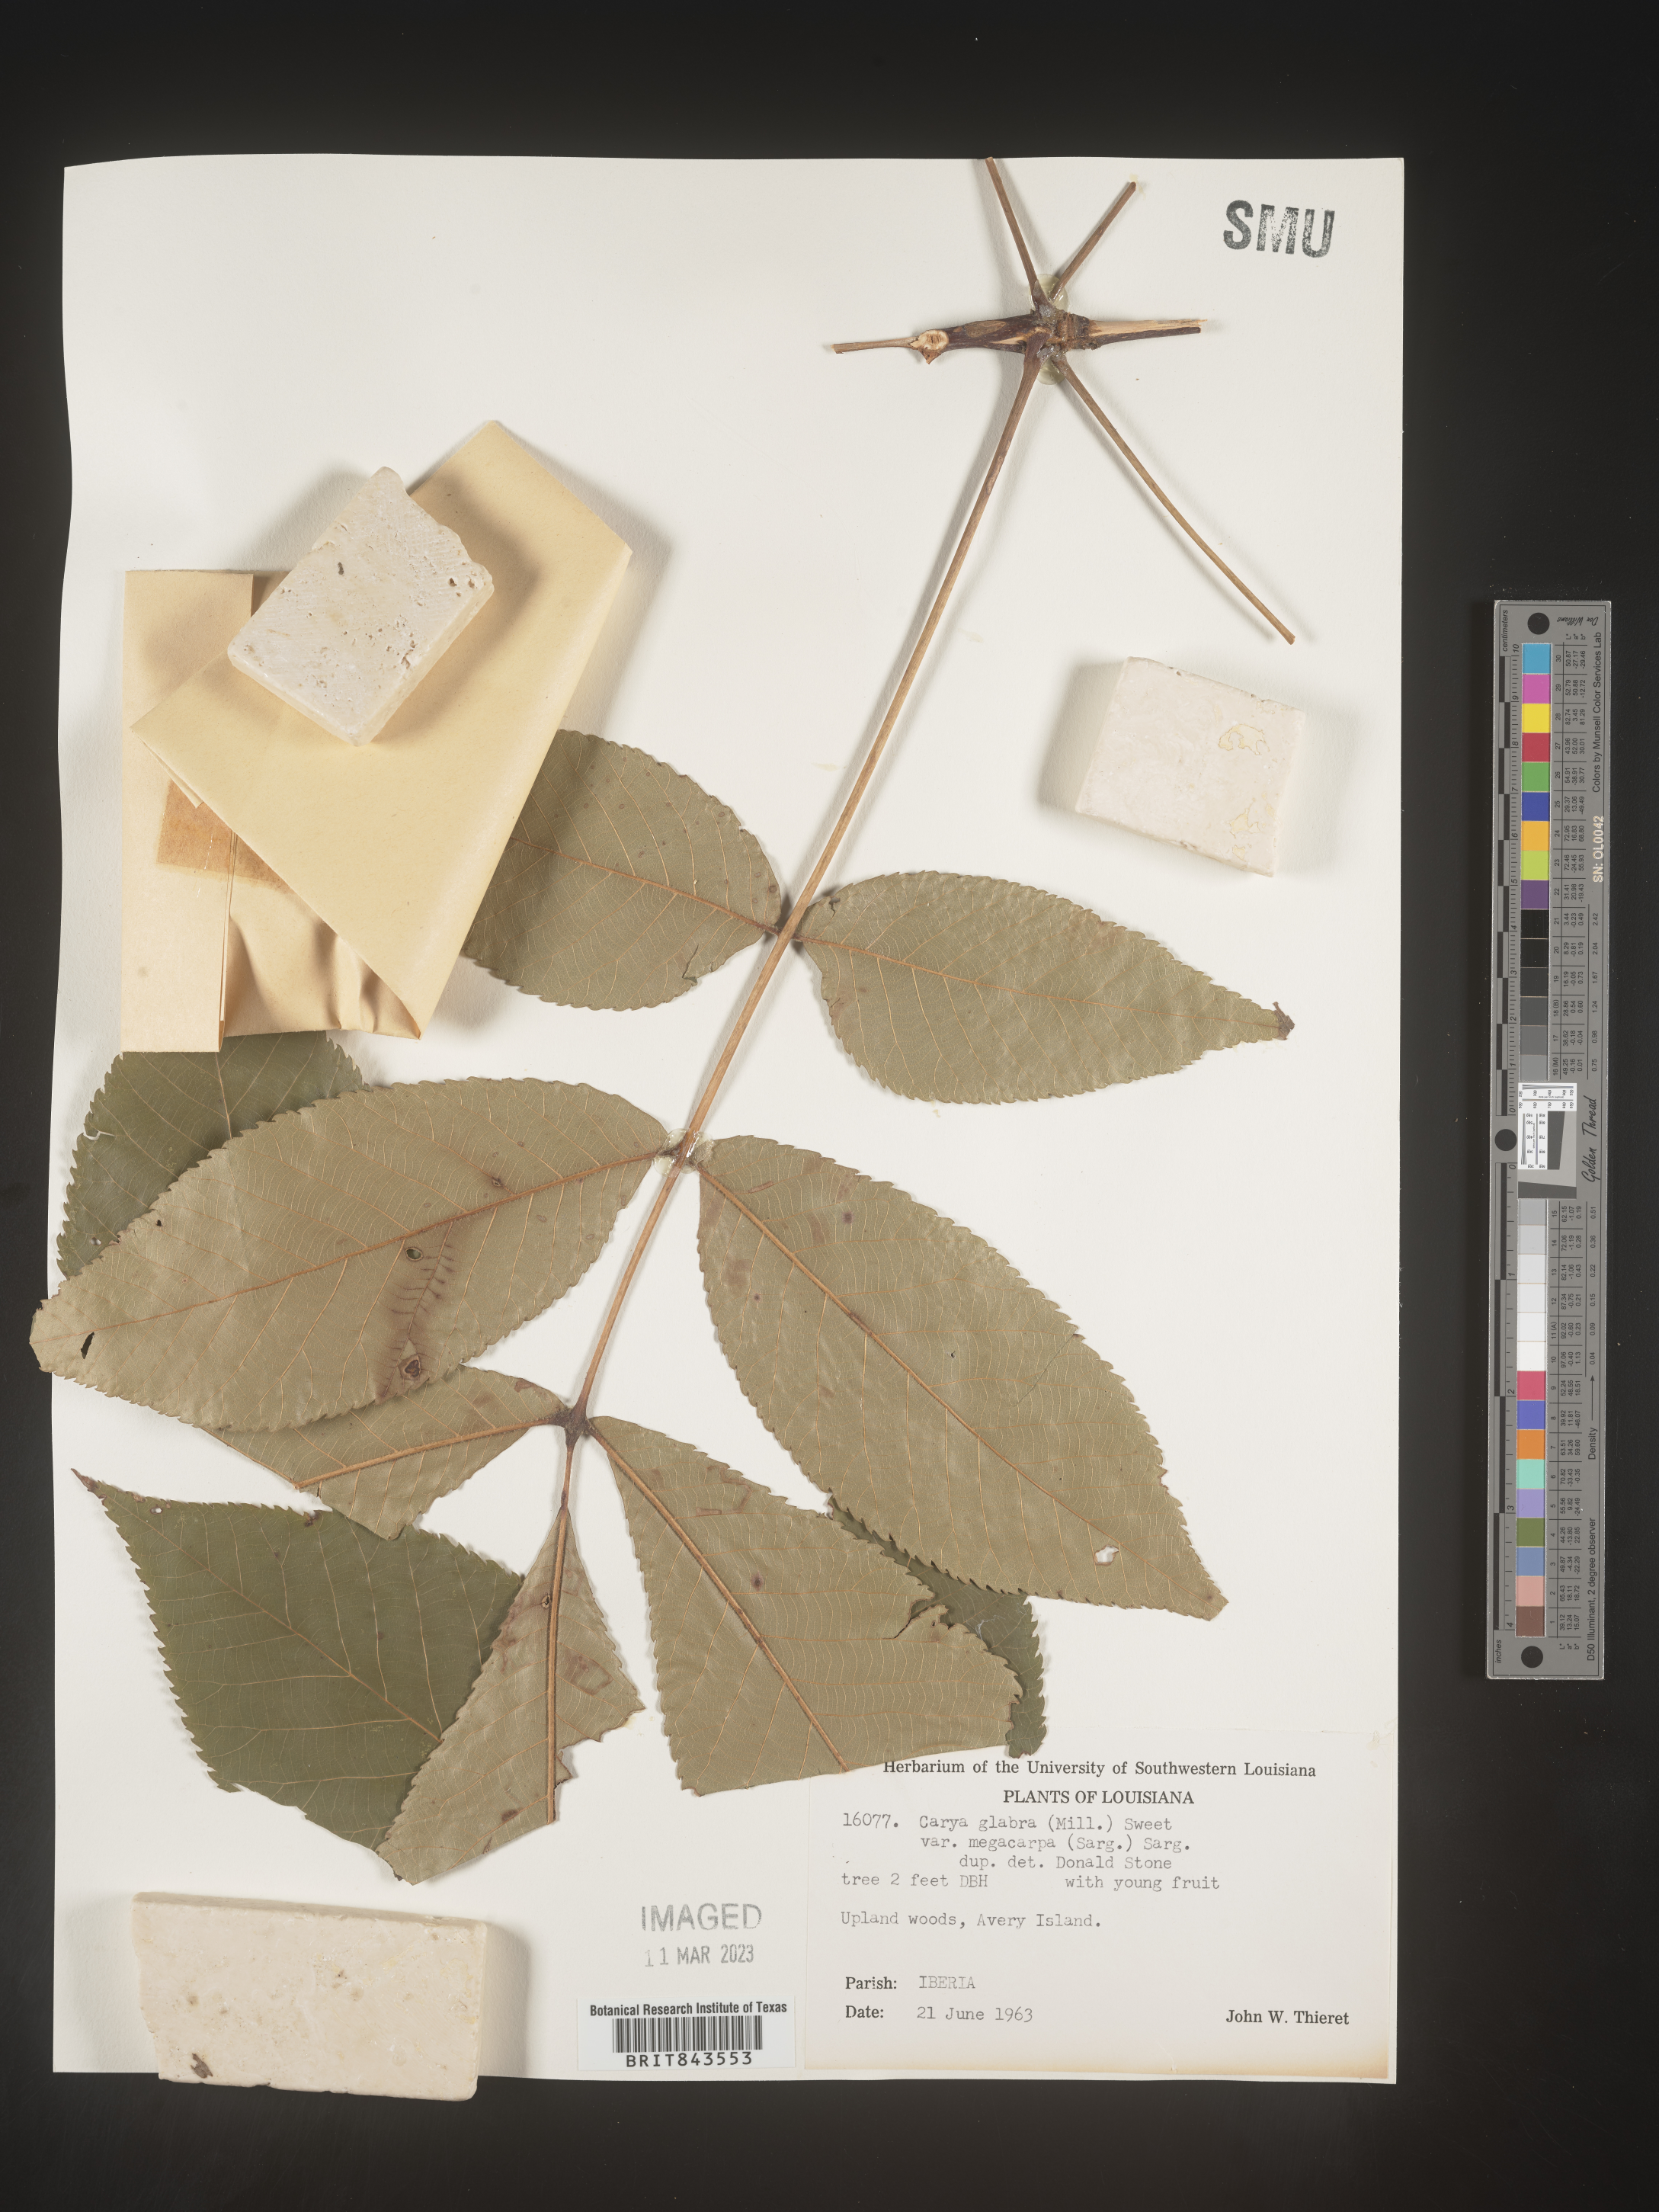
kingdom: Plantae
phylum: Tracheophyta
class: Magnoliopsida
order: Fagales
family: Juglandaceae
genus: Carya
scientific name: Carya glabra
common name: Pignut hickory
